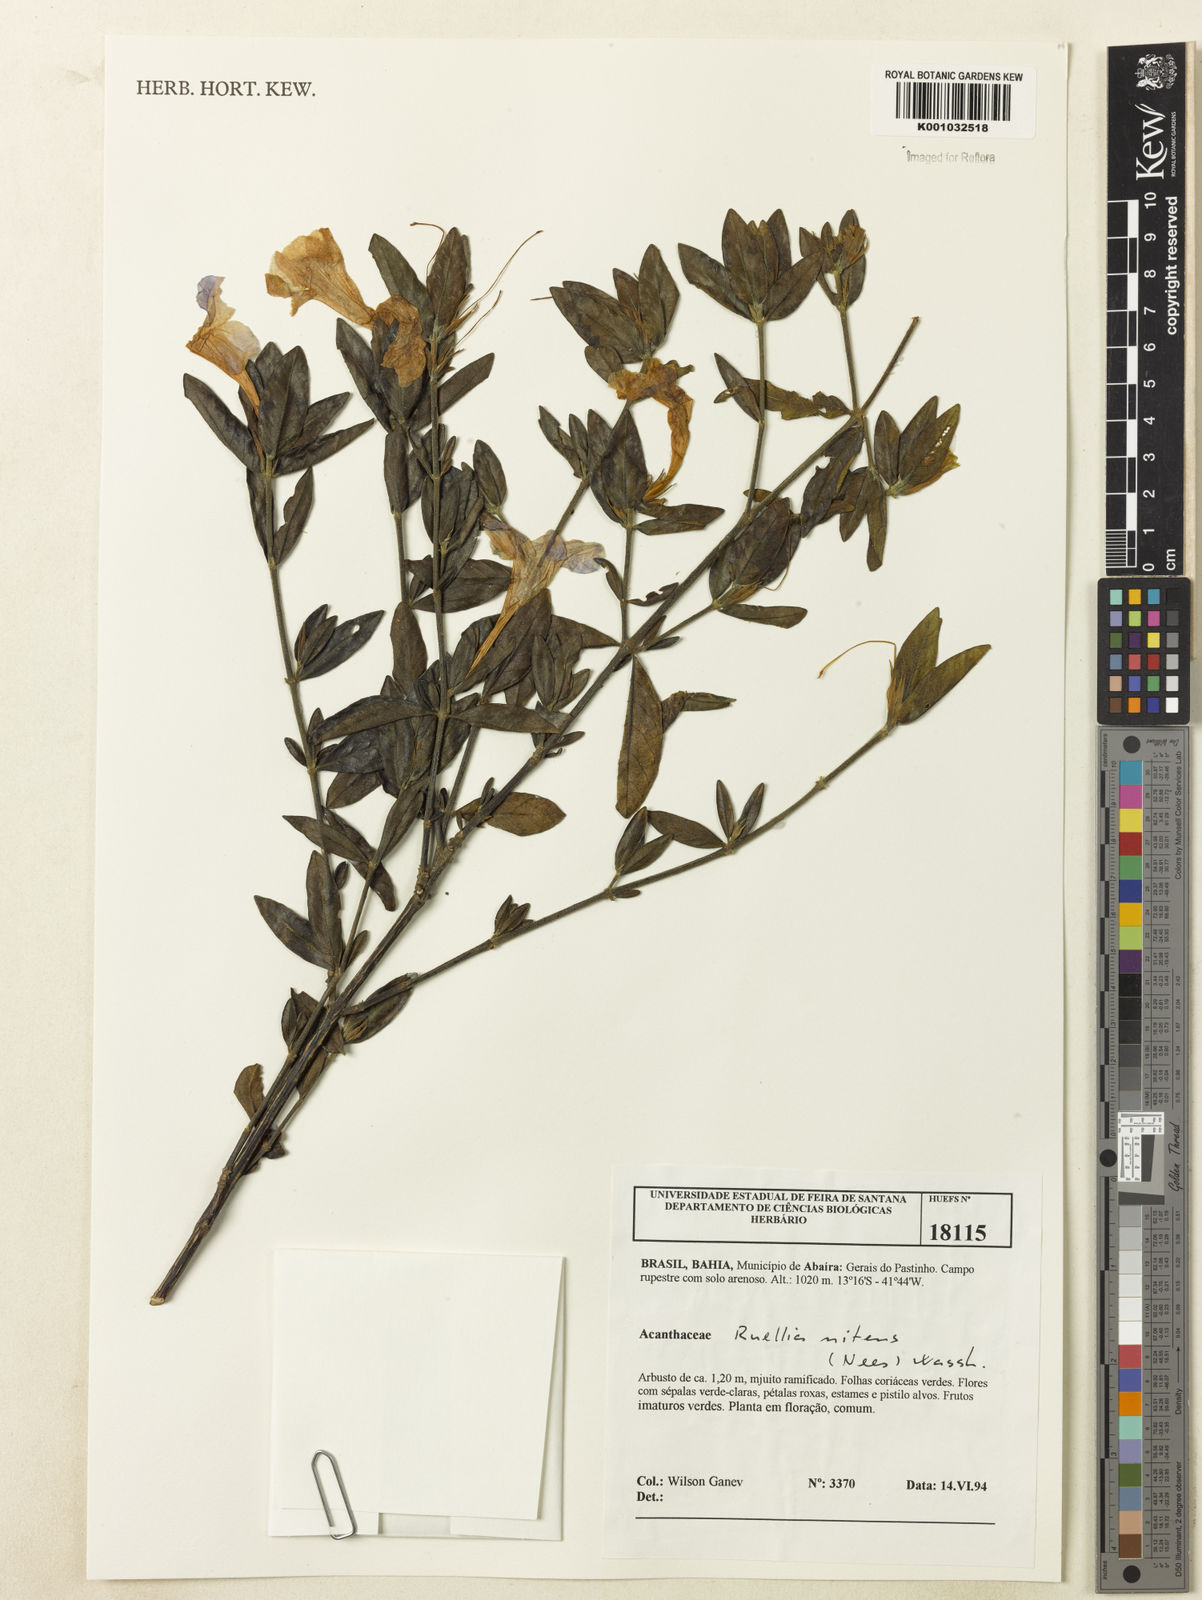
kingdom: Plantae
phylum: Tracheophyta
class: Magnoliopsida
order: Lamiales
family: Acanthaceae
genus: Ruellia
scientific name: Ruellia nitens
